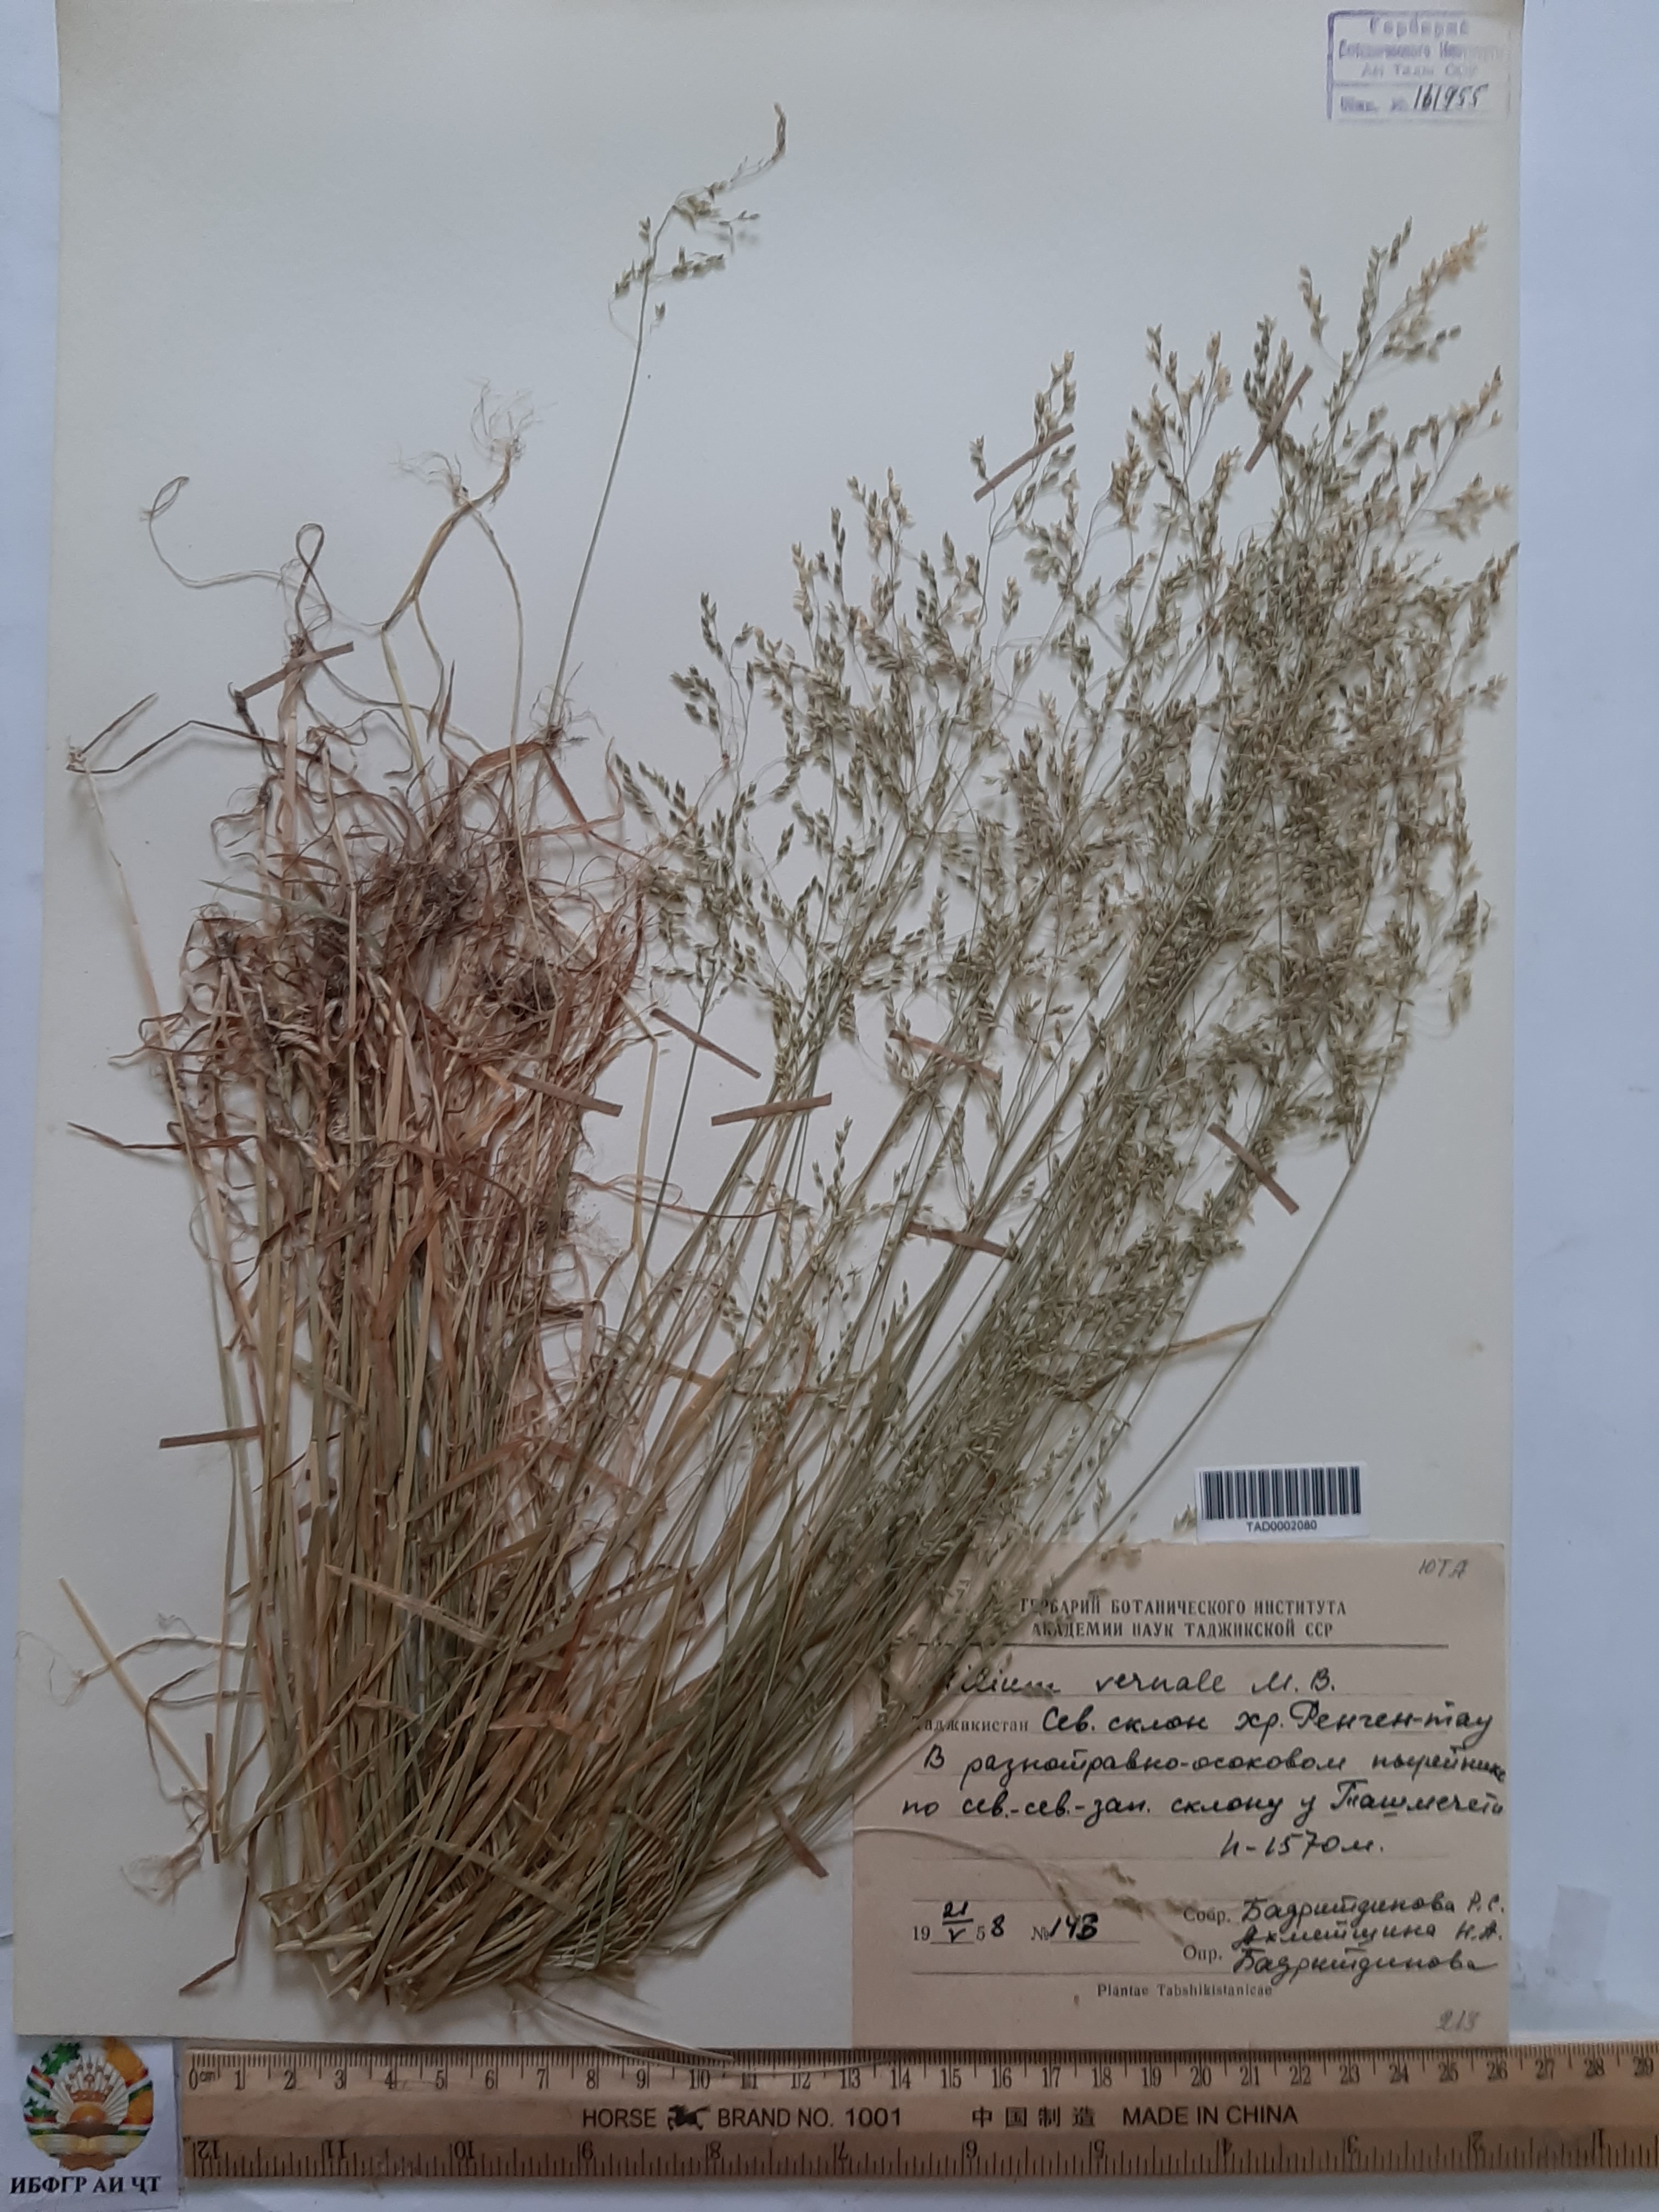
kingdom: Plantae
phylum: Tracheophyta
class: Liliopsida
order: Poales
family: Poaceae
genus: Milium
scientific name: Milium vernale
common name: Early millet
